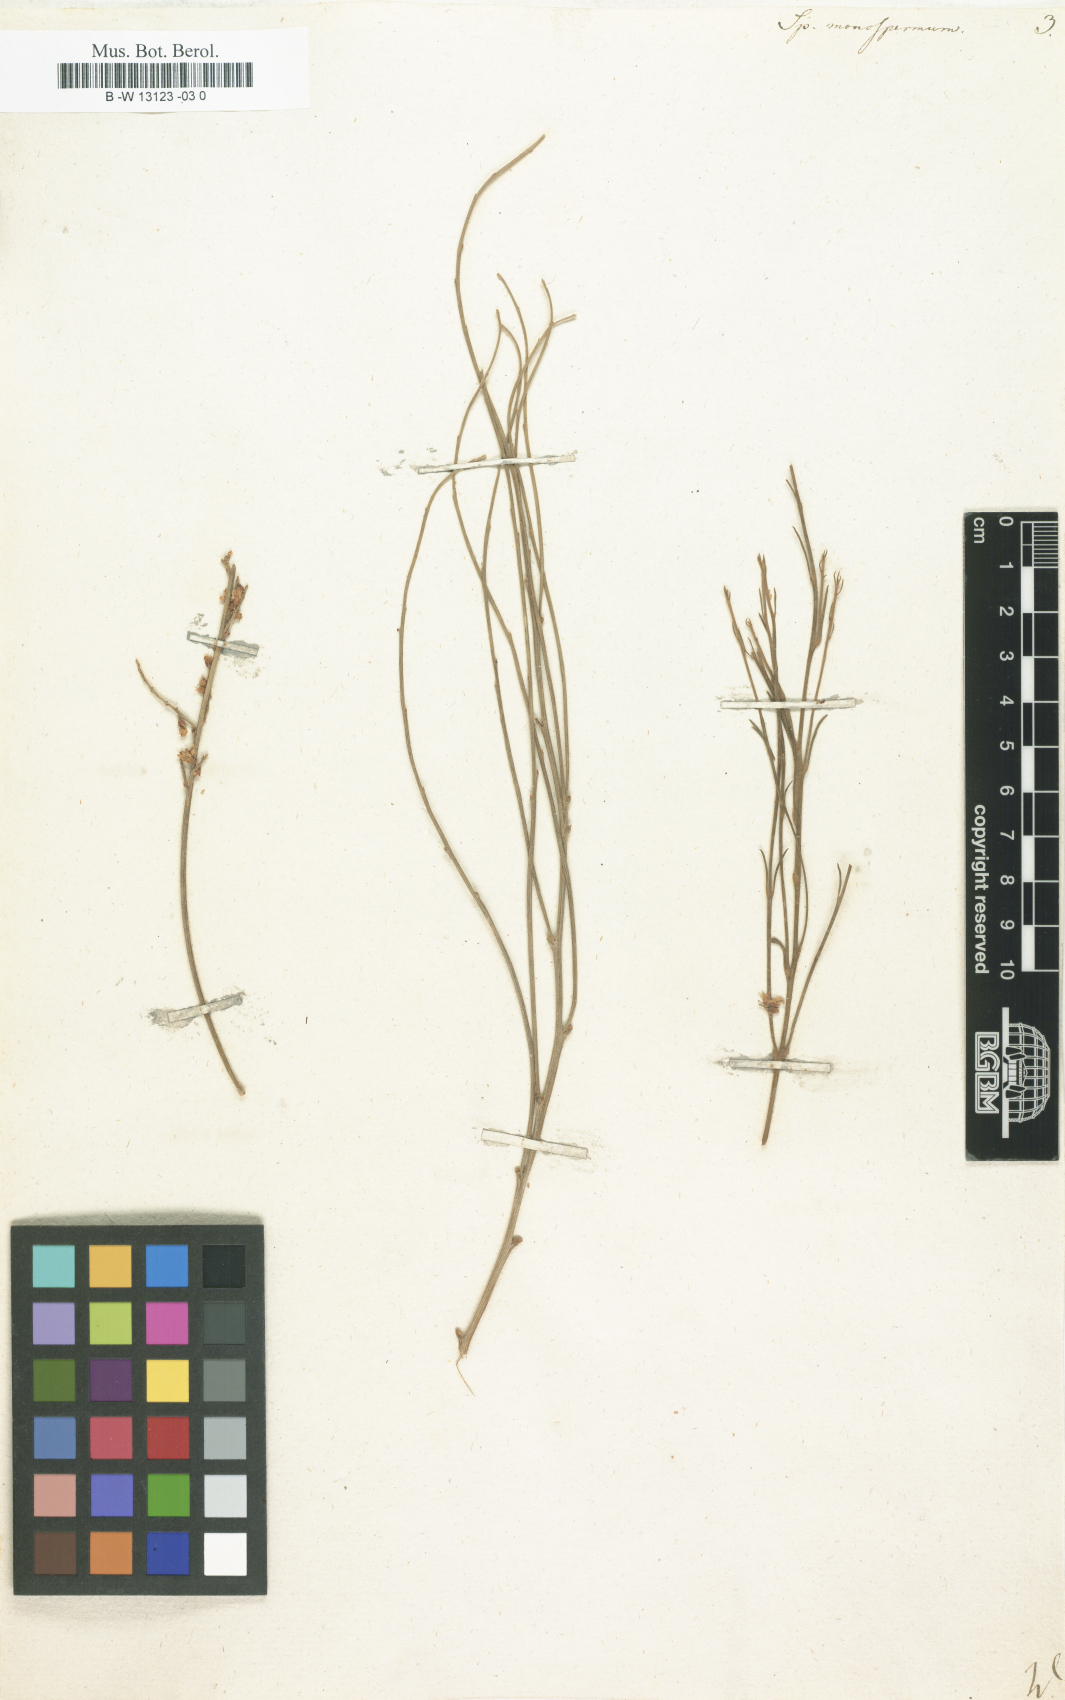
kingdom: Plantae
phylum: Tracheophyta
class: Magnoliopsida
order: Fabales
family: Fabaceae
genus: Retama
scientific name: Retama
